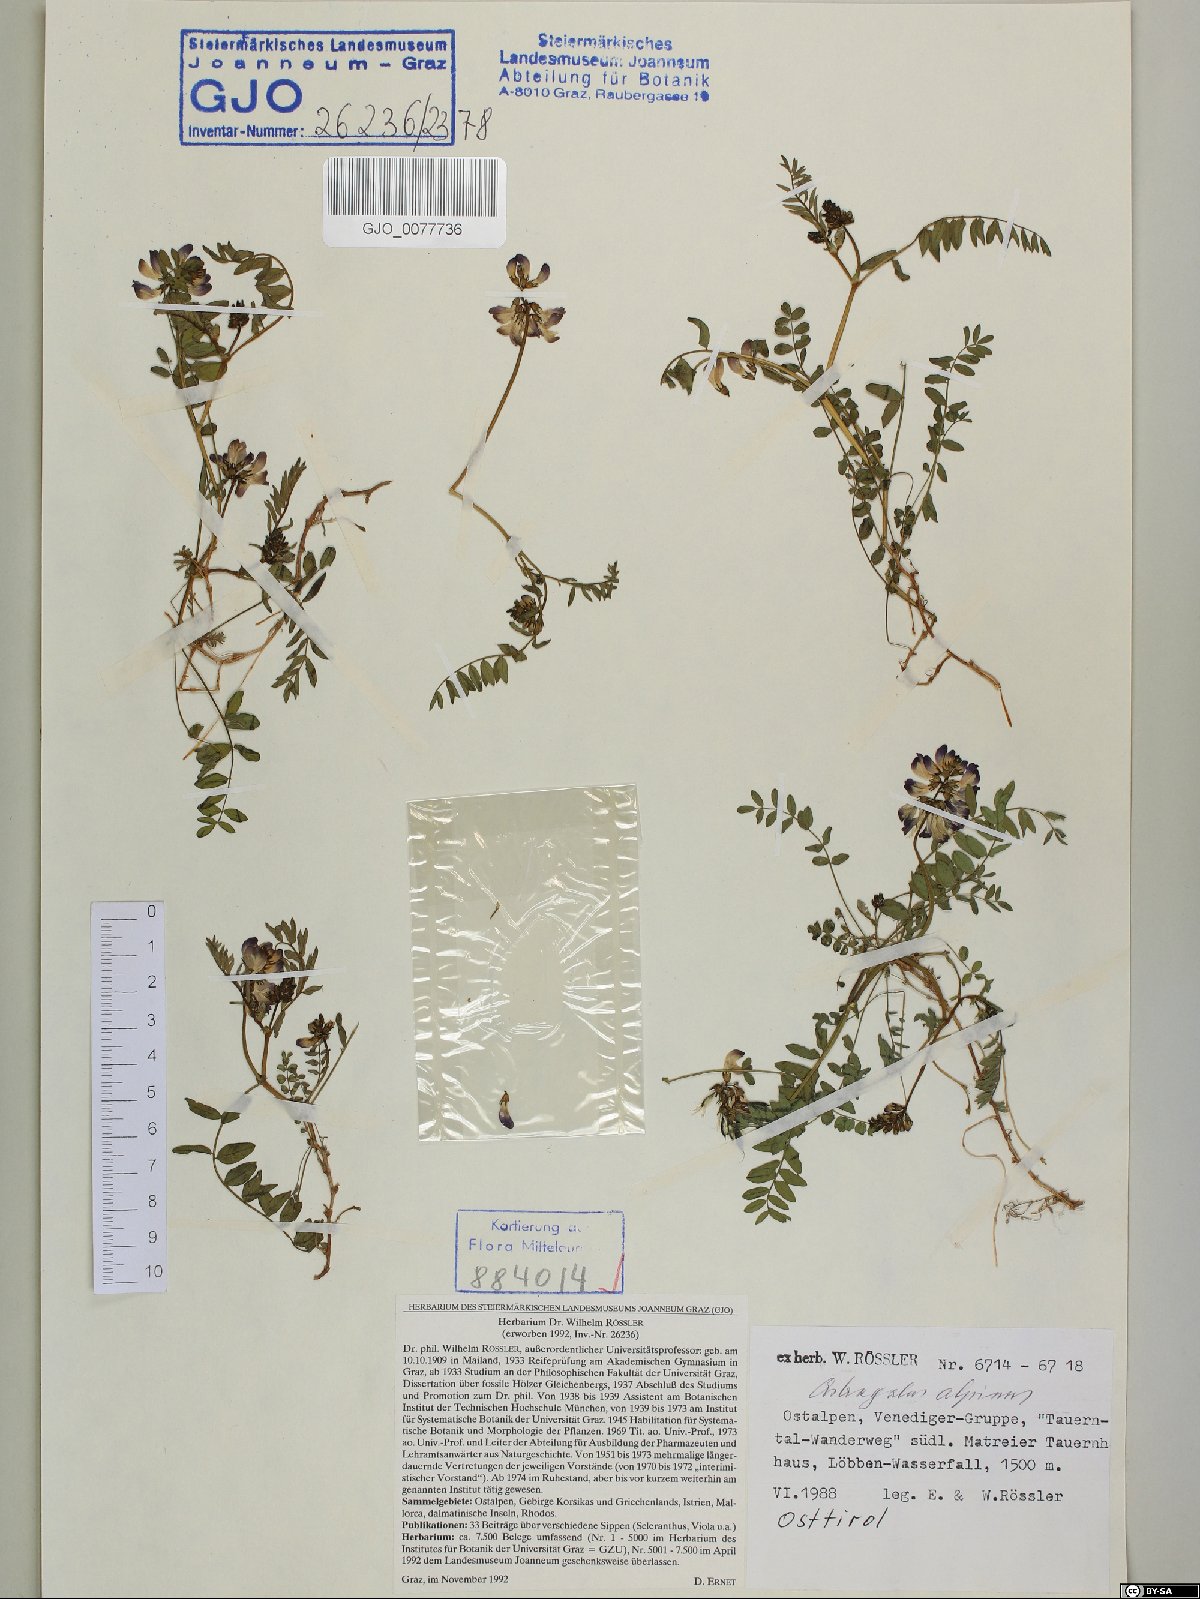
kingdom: Plantae
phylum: Tracheophyta
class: Magnoliopsida
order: Fabales
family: Fabaceae
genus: Astragalus
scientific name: Astragalus alpinus
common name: Alpine milk-vetch
